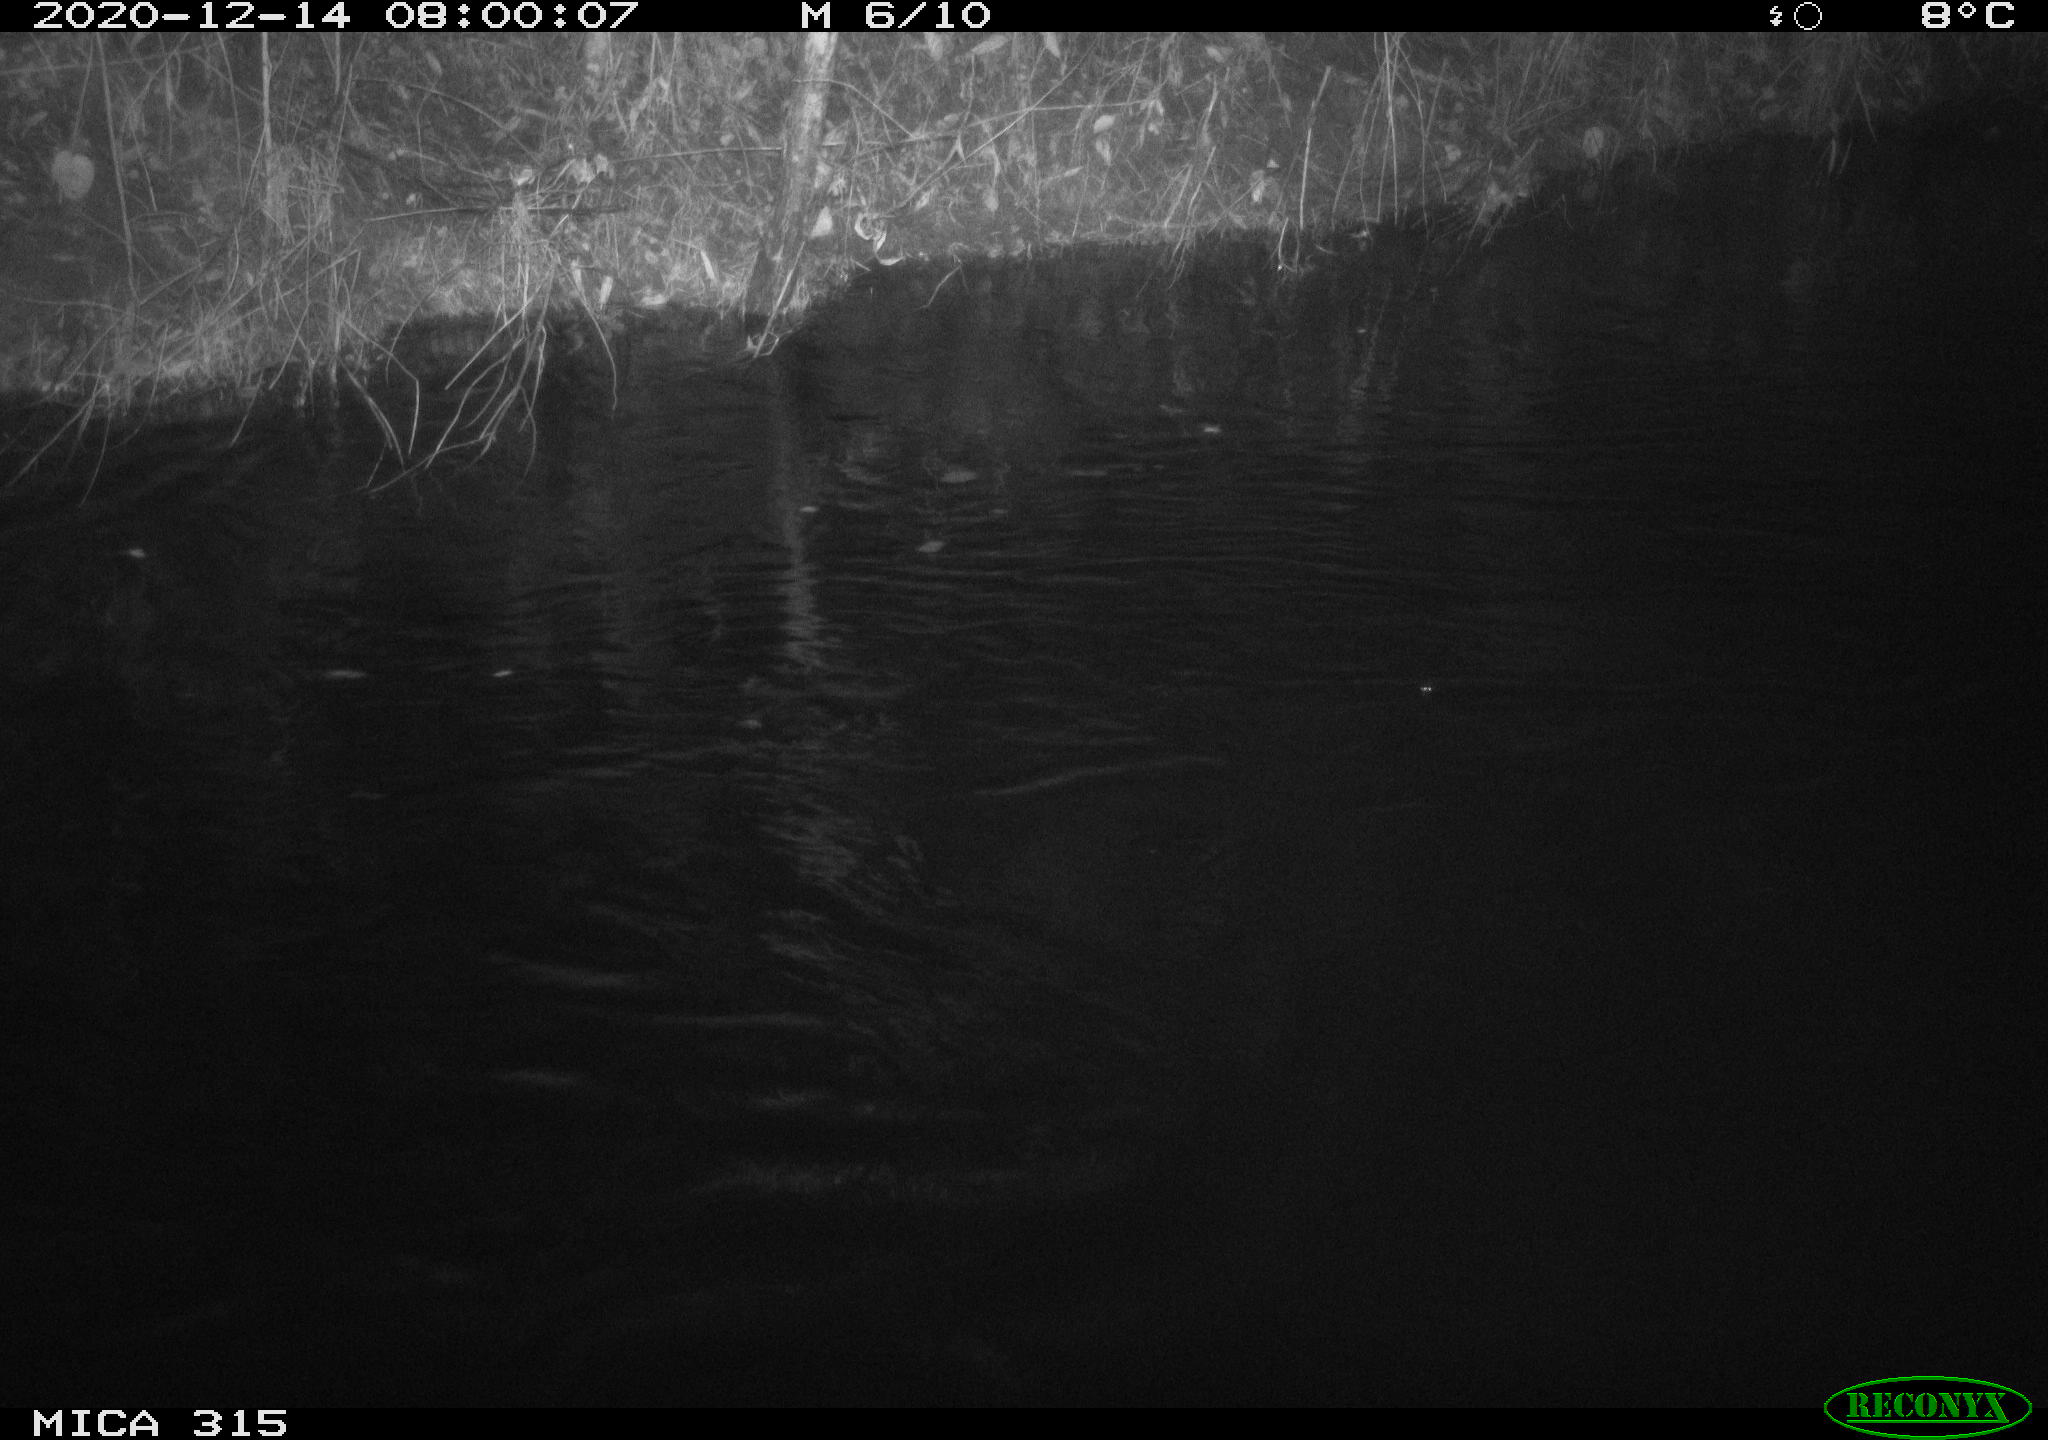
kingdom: Animalia
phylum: Chordata
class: Aves
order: Anseriformes
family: Anatidae
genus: Anas
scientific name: Anas platyrhynchos
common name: Mallard
